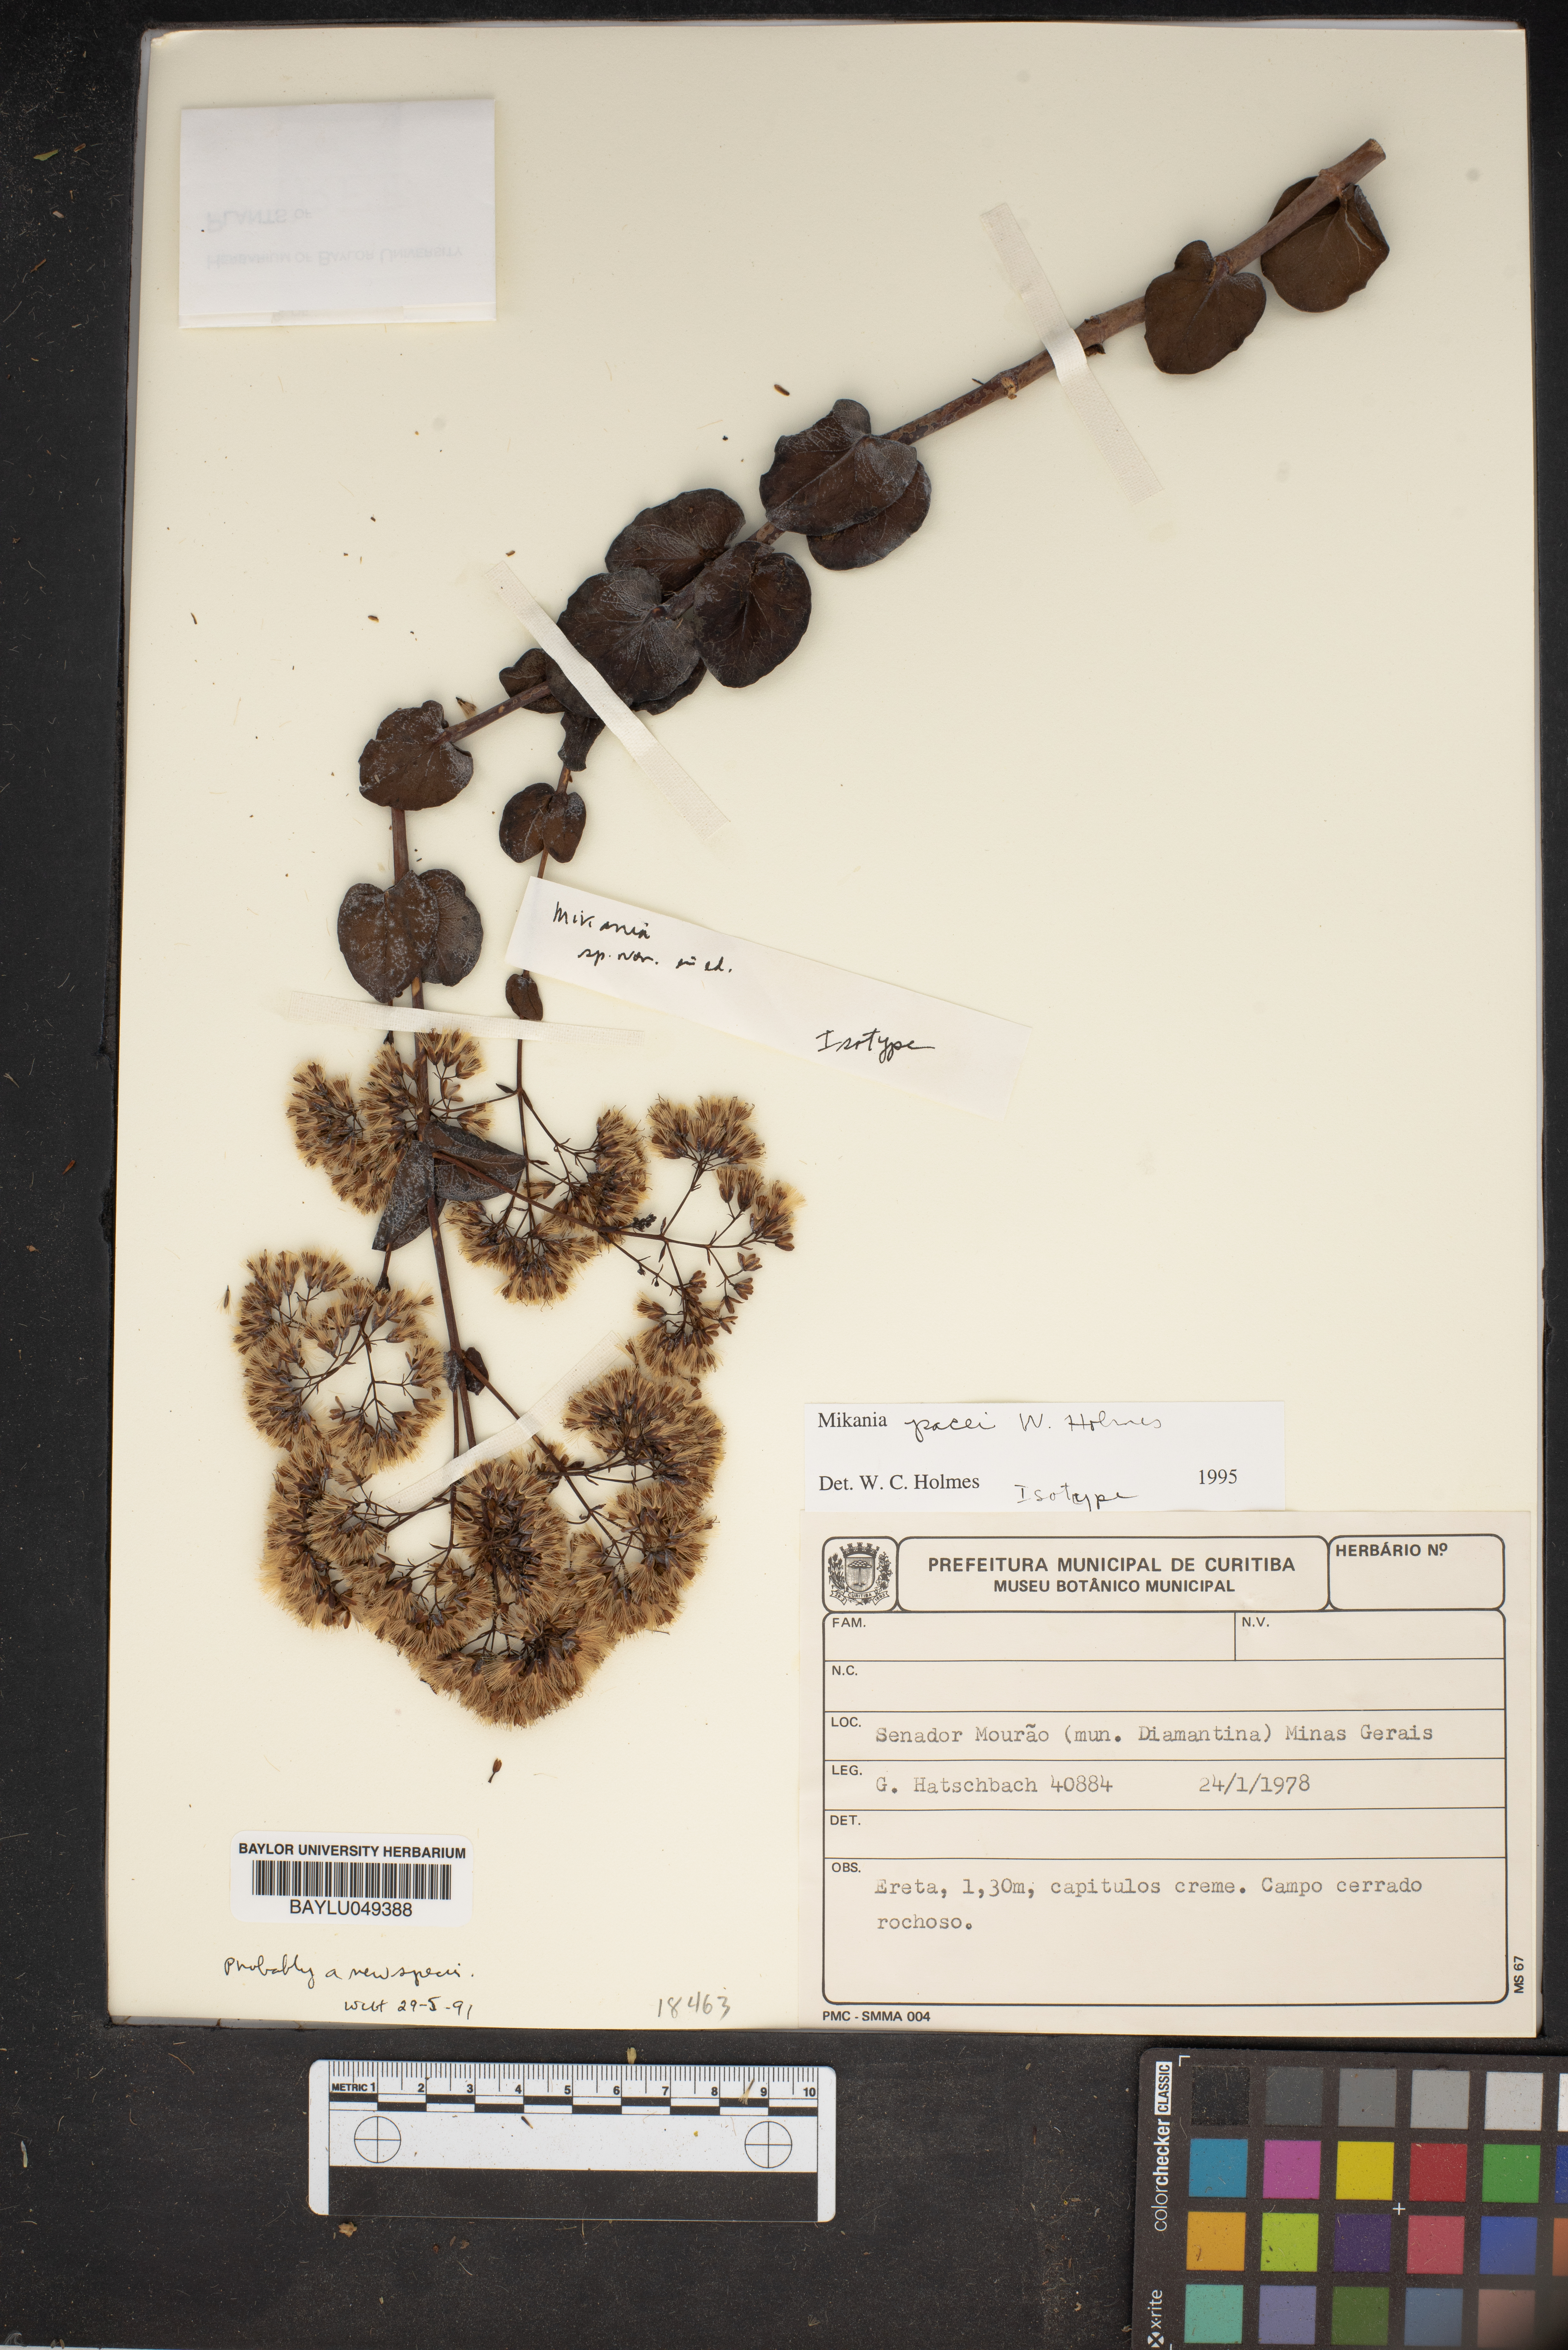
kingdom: Plantae
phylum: Tracheophyta
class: Magnoliopsida
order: Asterales
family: Asteraceae
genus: Mikania
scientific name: Mikania pacei
